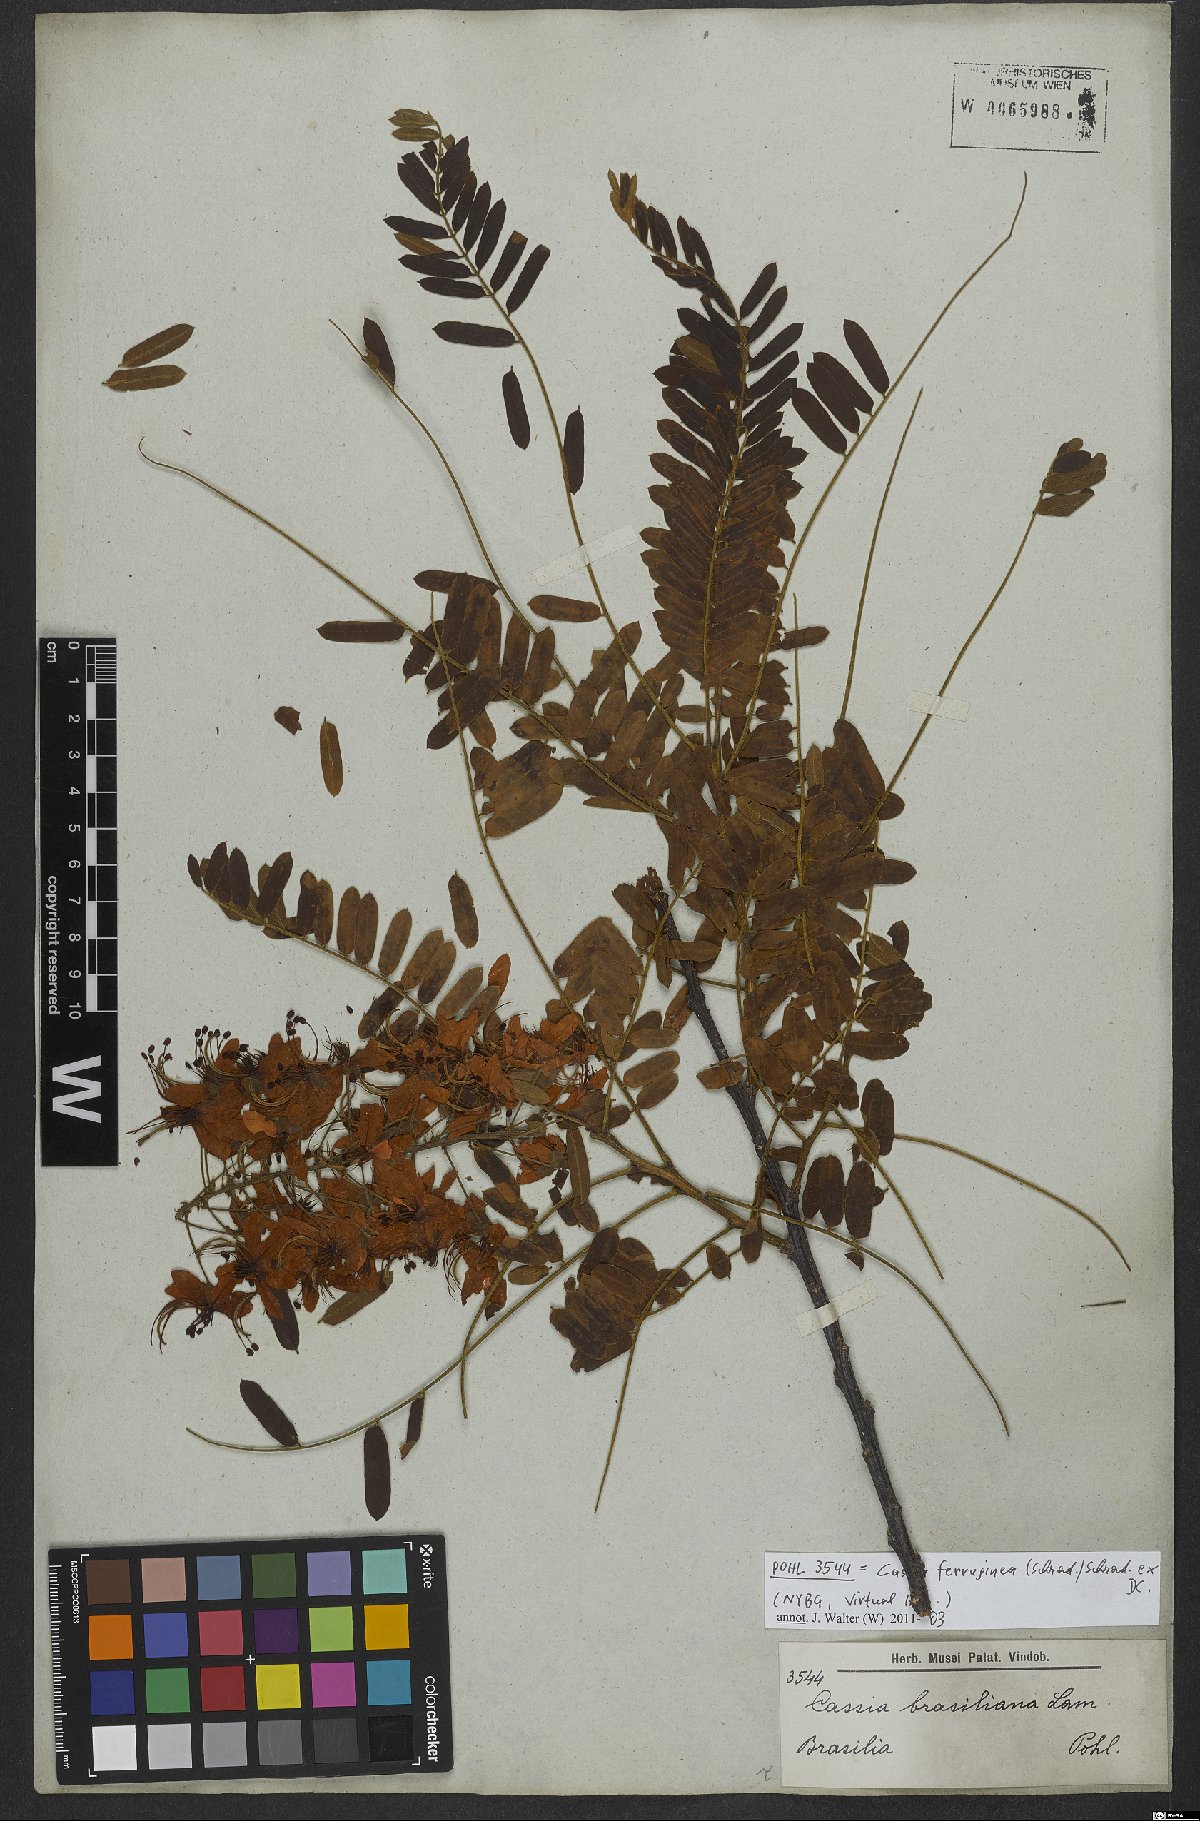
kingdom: Plantae
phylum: Tracheophyta
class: Magnoliopsida
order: Fabales
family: Fabaceae
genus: Cassia
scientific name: Cassia grandis
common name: Appleblossom cassia
